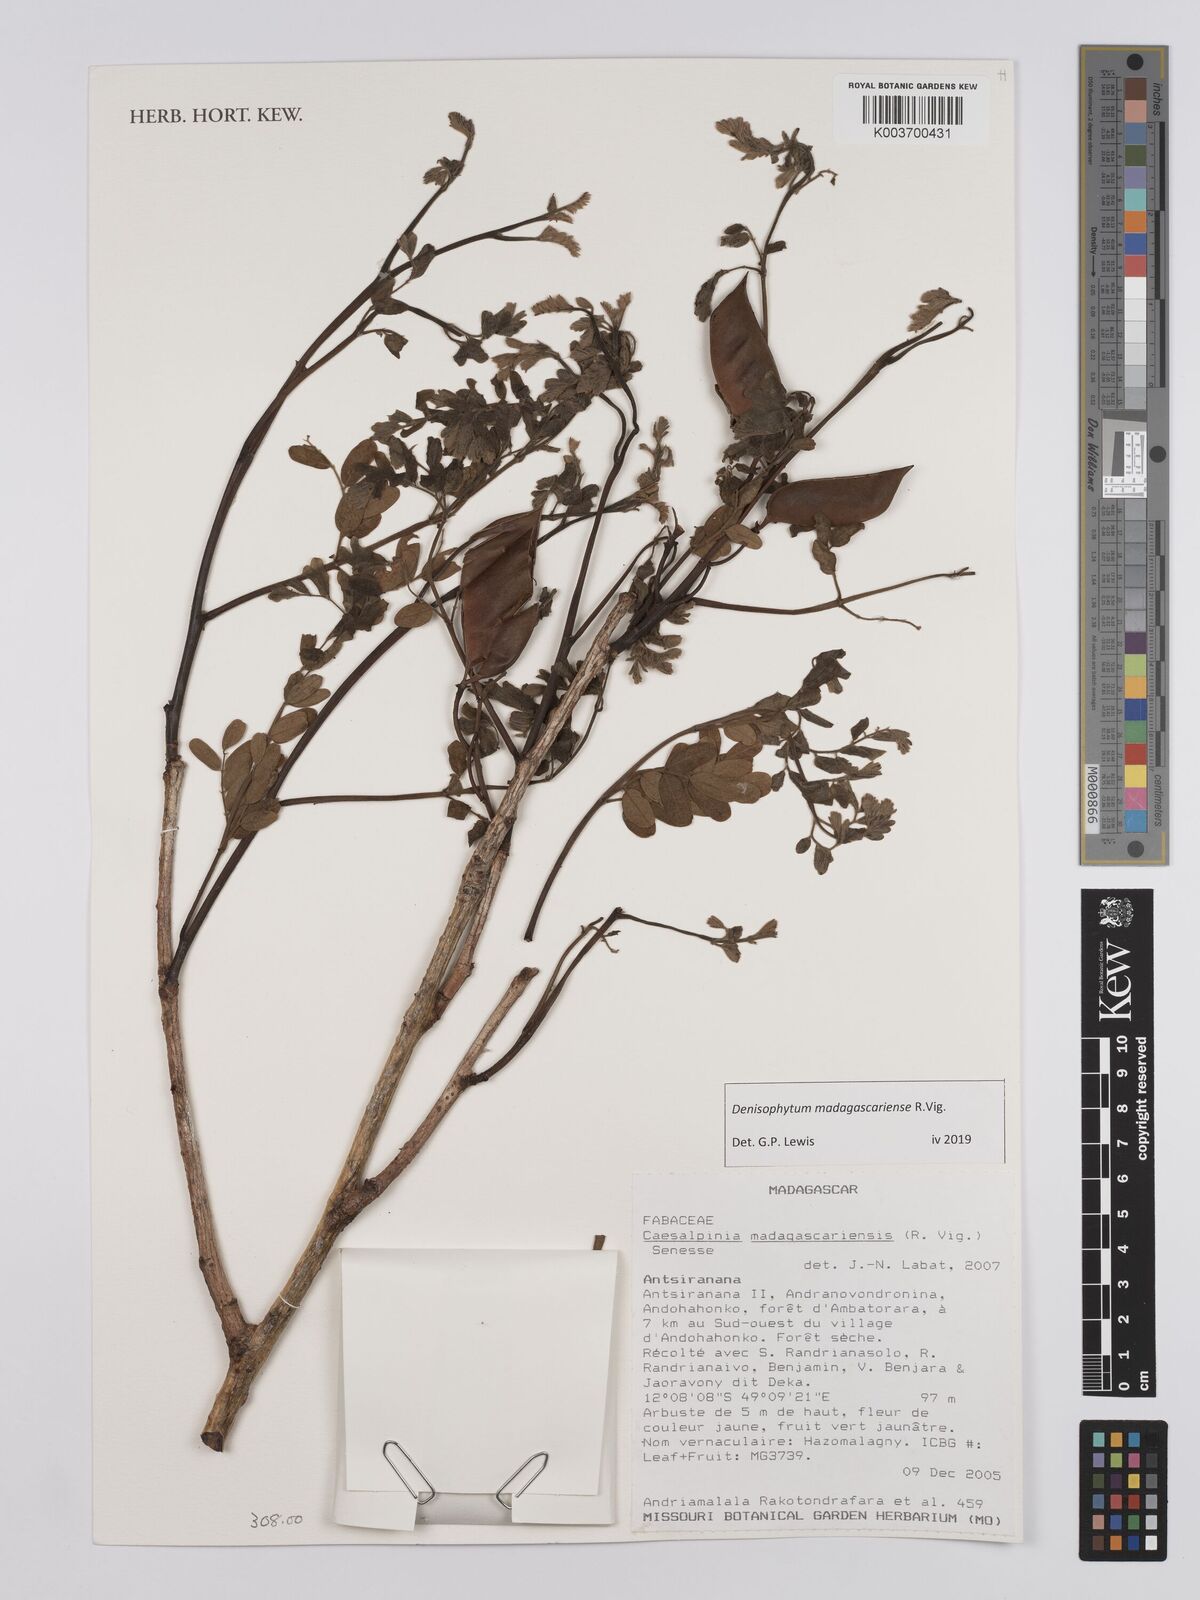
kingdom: Plantae
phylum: Tracheophyta
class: Magnoliopsida
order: Fabales
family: Fabaceae
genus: Denisophytum
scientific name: Denisophytum madagascariense
